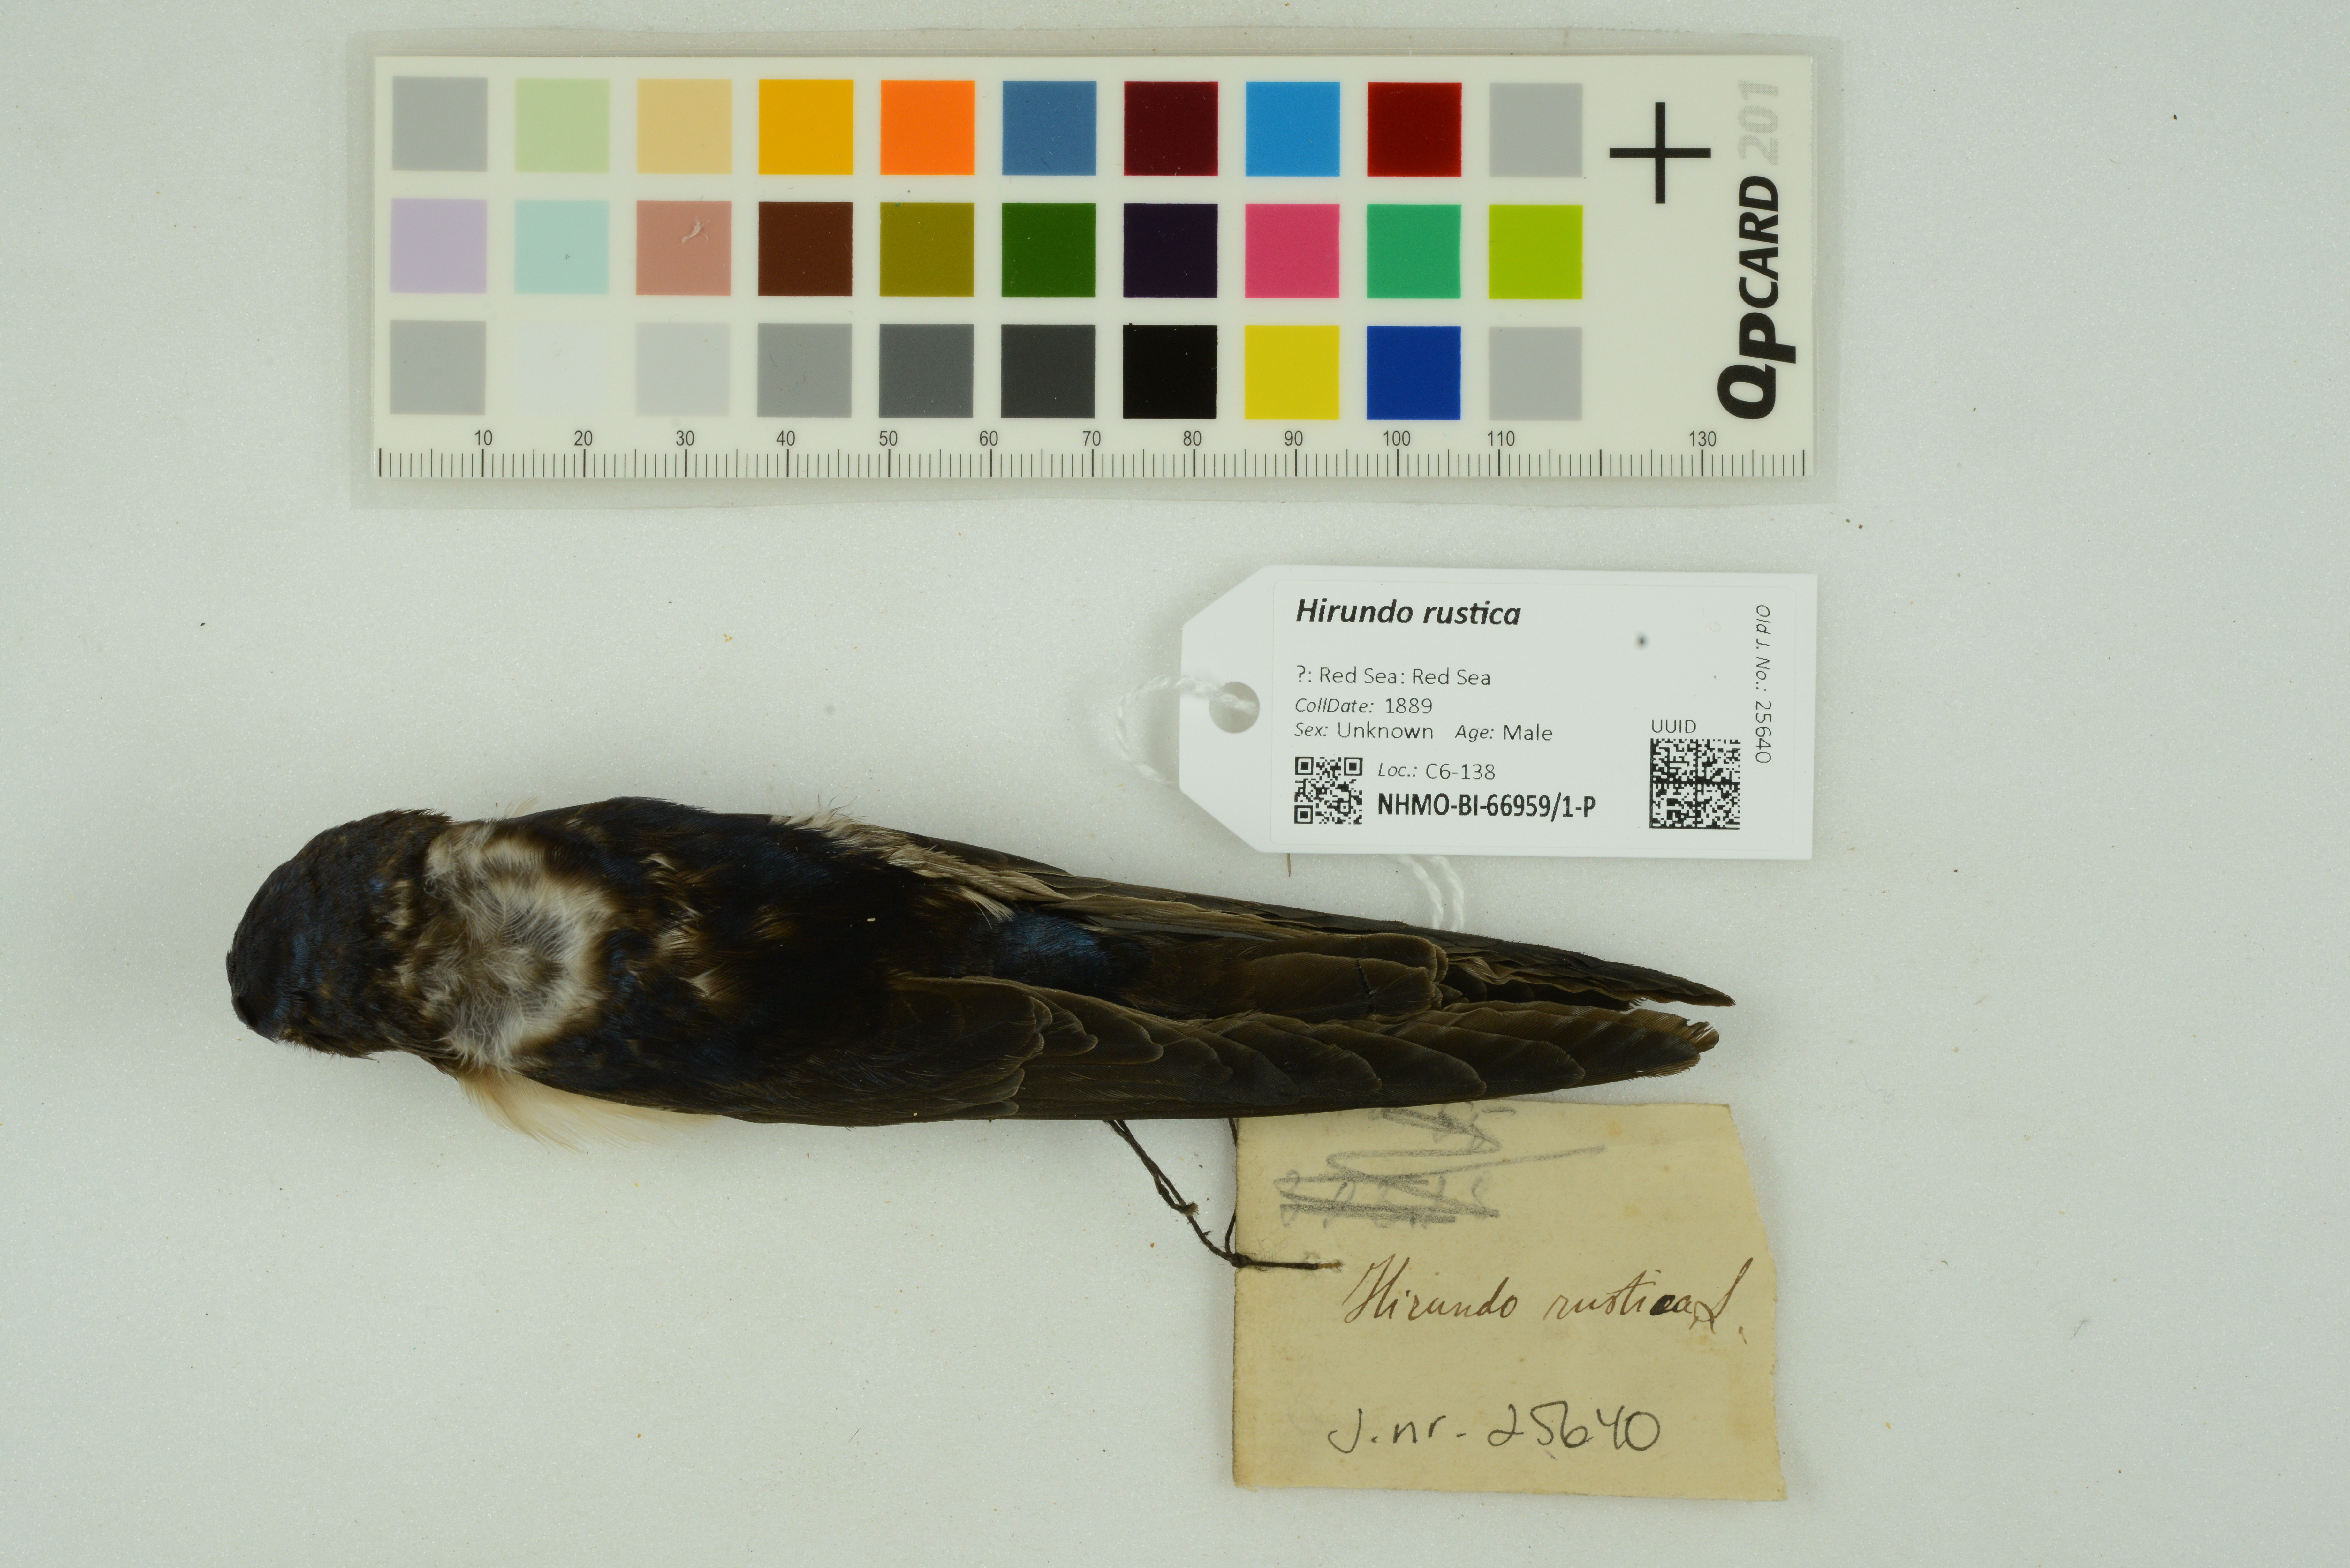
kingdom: Animalia
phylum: Chordata
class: Aves
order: Passeriformes
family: Hirundinidae
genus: Hirundo
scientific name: Hirundo rustica
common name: Barn swallow
